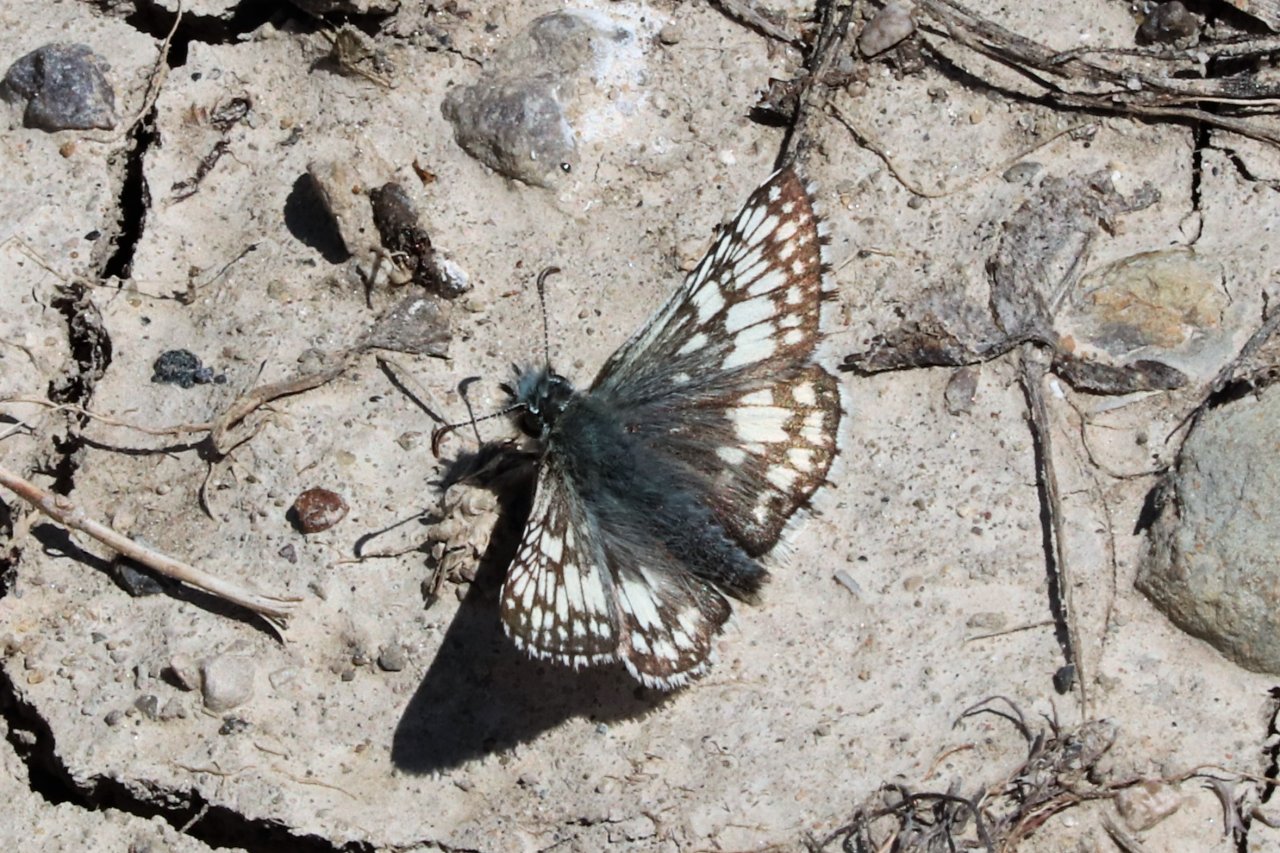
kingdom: Animalia
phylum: Arthropoda
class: Insecta
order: Lepidoptera
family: Hesperiidae
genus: Pyrgus
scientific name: Pyrgus communis
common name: Common Checkered-Skipper
